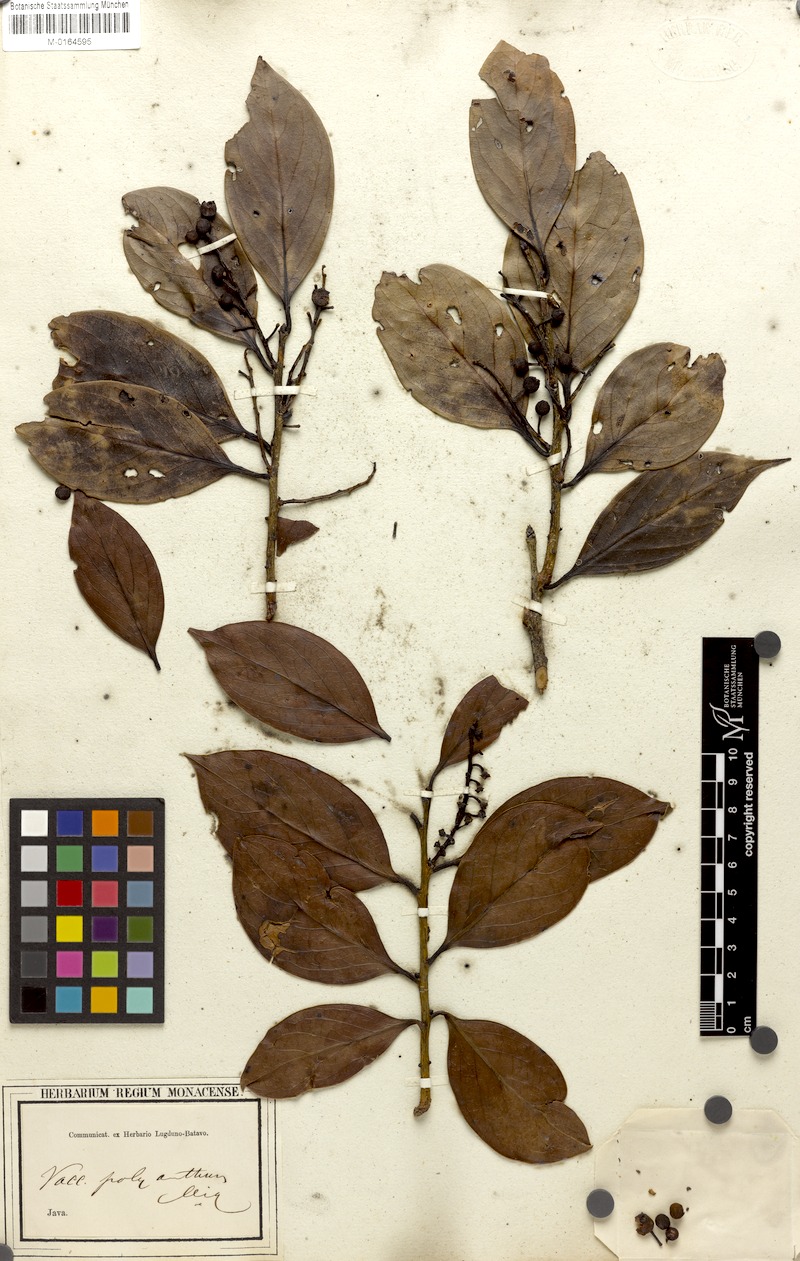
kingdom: Plantae
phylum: Tracheophyta
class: Magnoliopsida
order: Ericales
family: Ericaceae
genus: Vaccinium
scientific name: Vaccinium laurifolium
